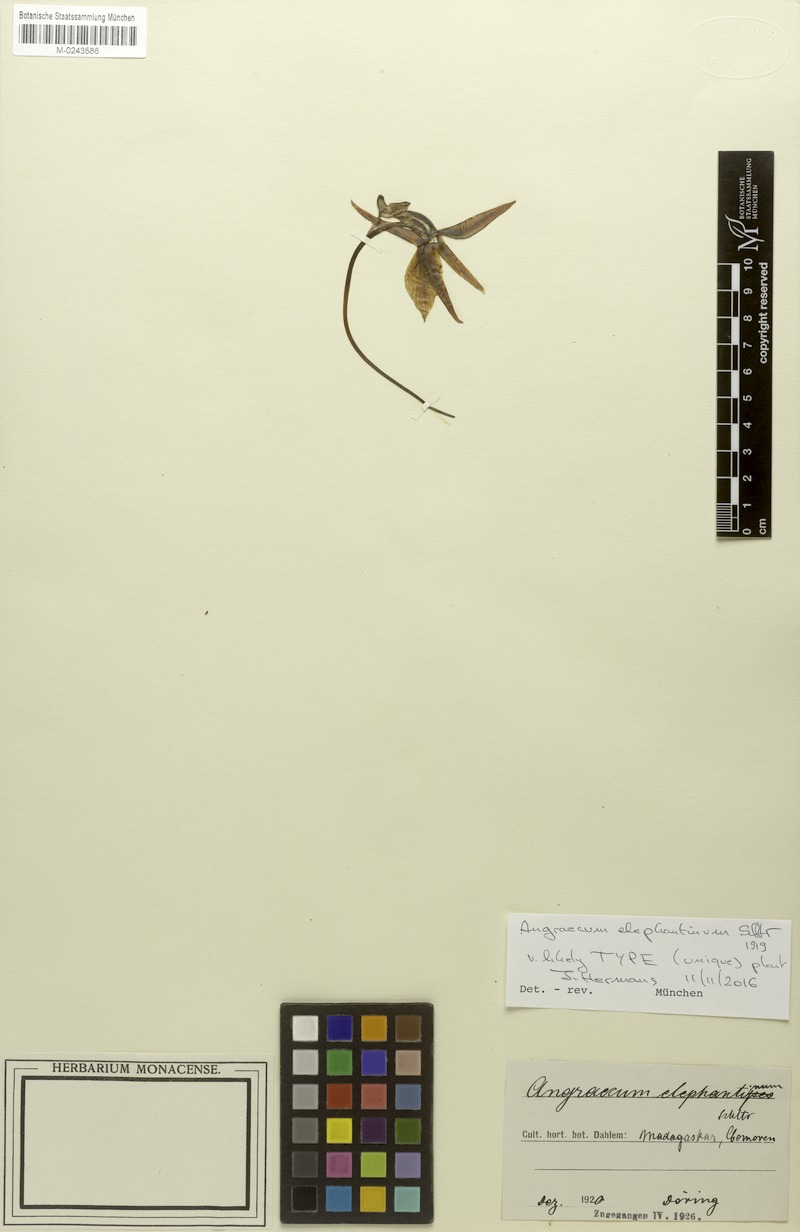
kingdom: Plantae
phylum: Tracheophyta
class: Liliopsida
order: Asparagales
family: Orchidaceae
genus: Angraecum
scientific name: Angraecum elephantinum
